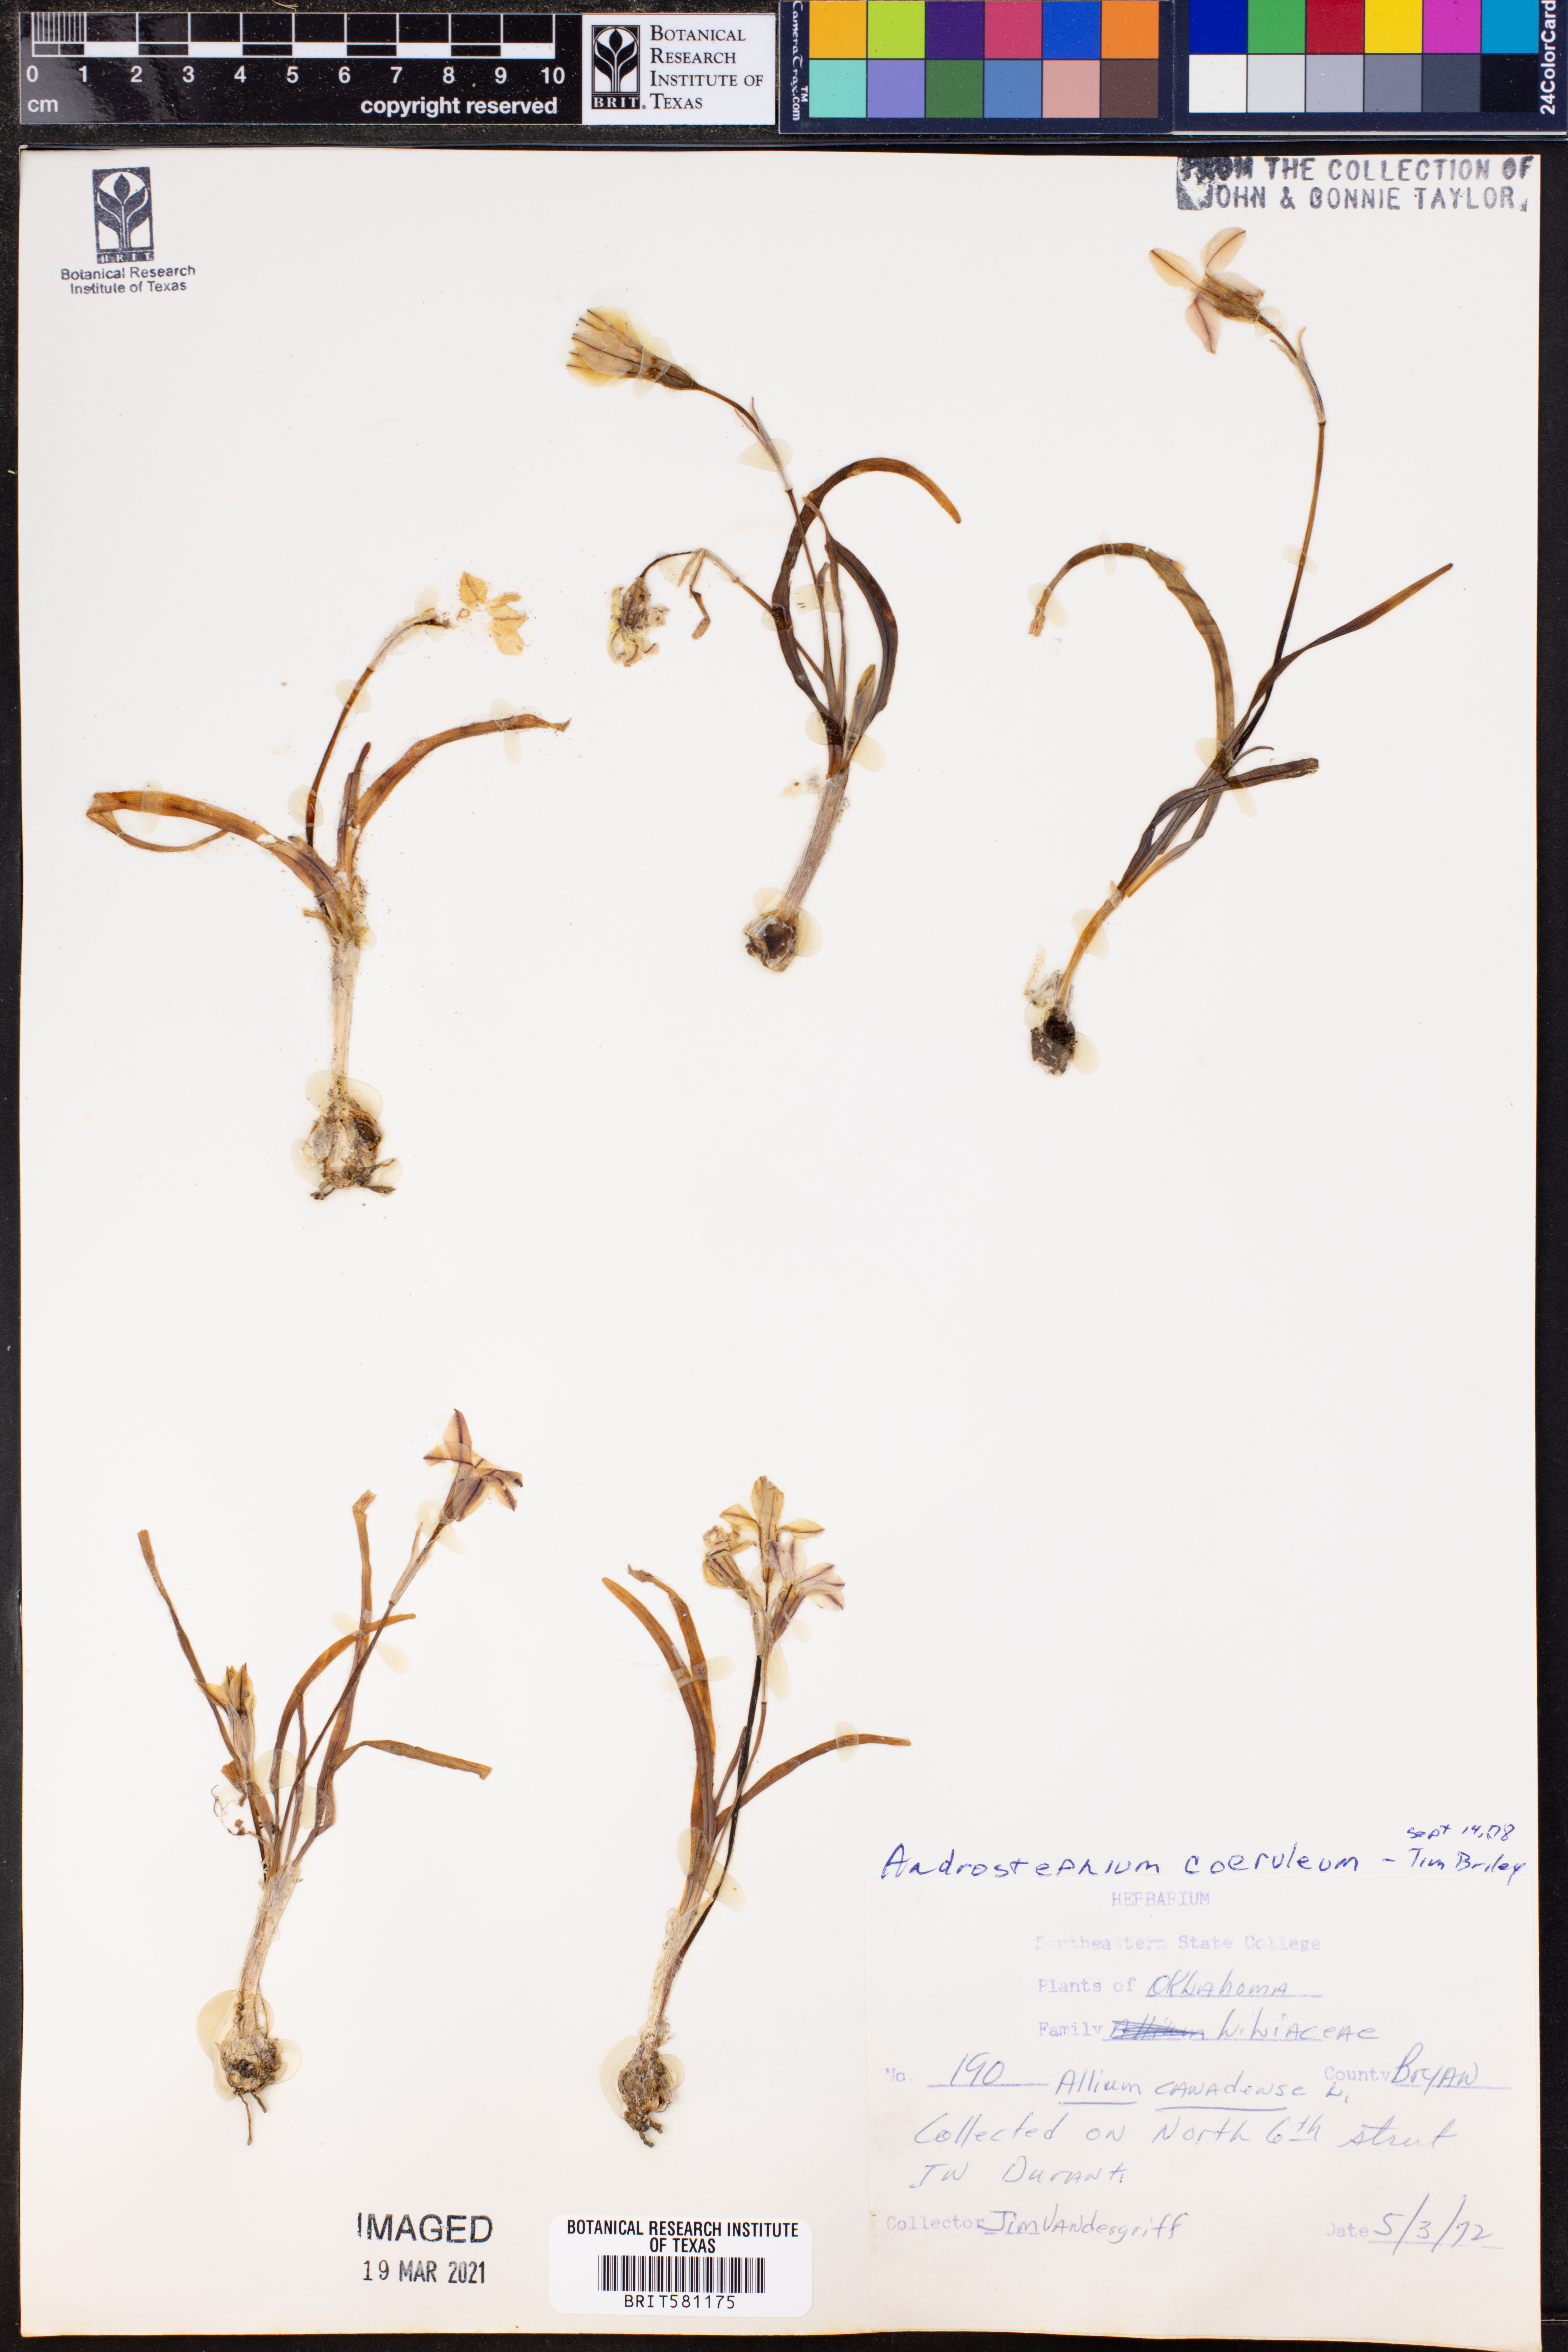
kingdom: Plantae
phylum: Tracheophyta
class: Liliopsida
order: Asparagales
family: Asparagaceae
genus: Androstephium
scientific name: Androstephium coeruleum
